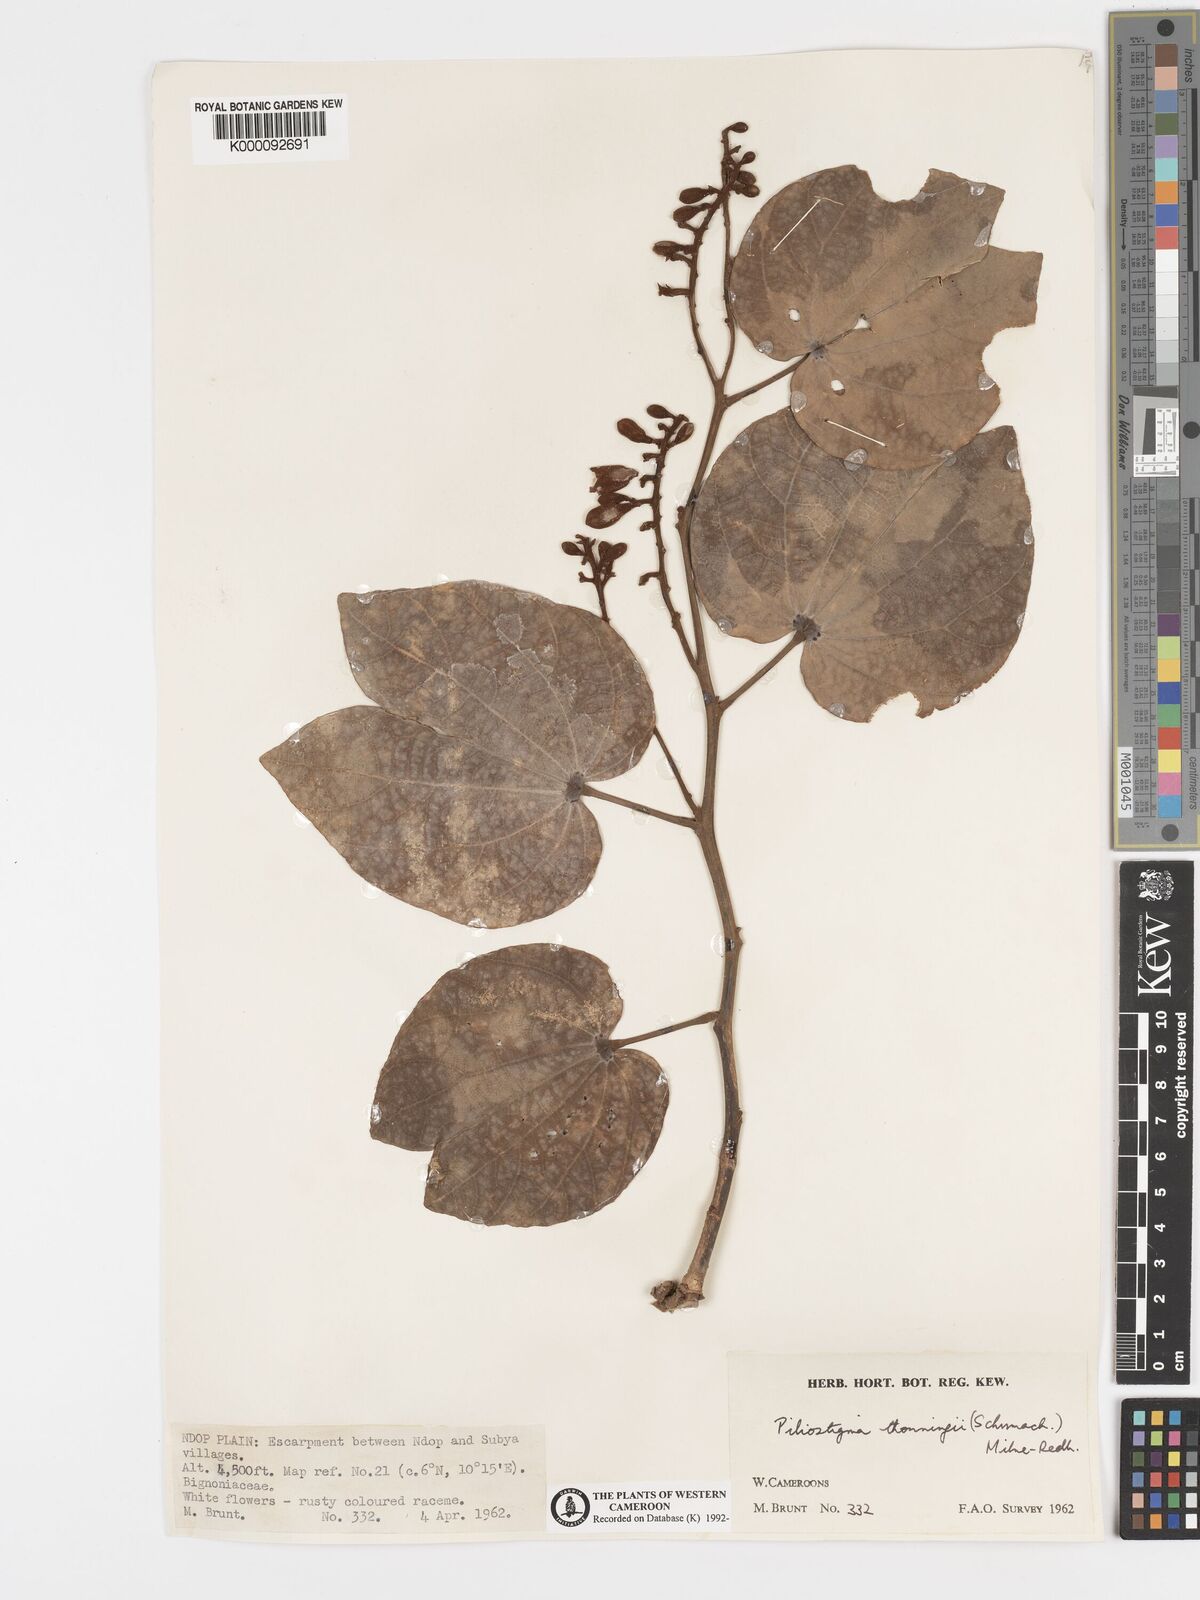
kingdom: Plantae
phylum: Tracheophyta
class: Magnoliopsida
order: Fabales
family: Fabaceae
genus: Piliostigma
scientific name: Piliostigma thonningii
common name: Kao
